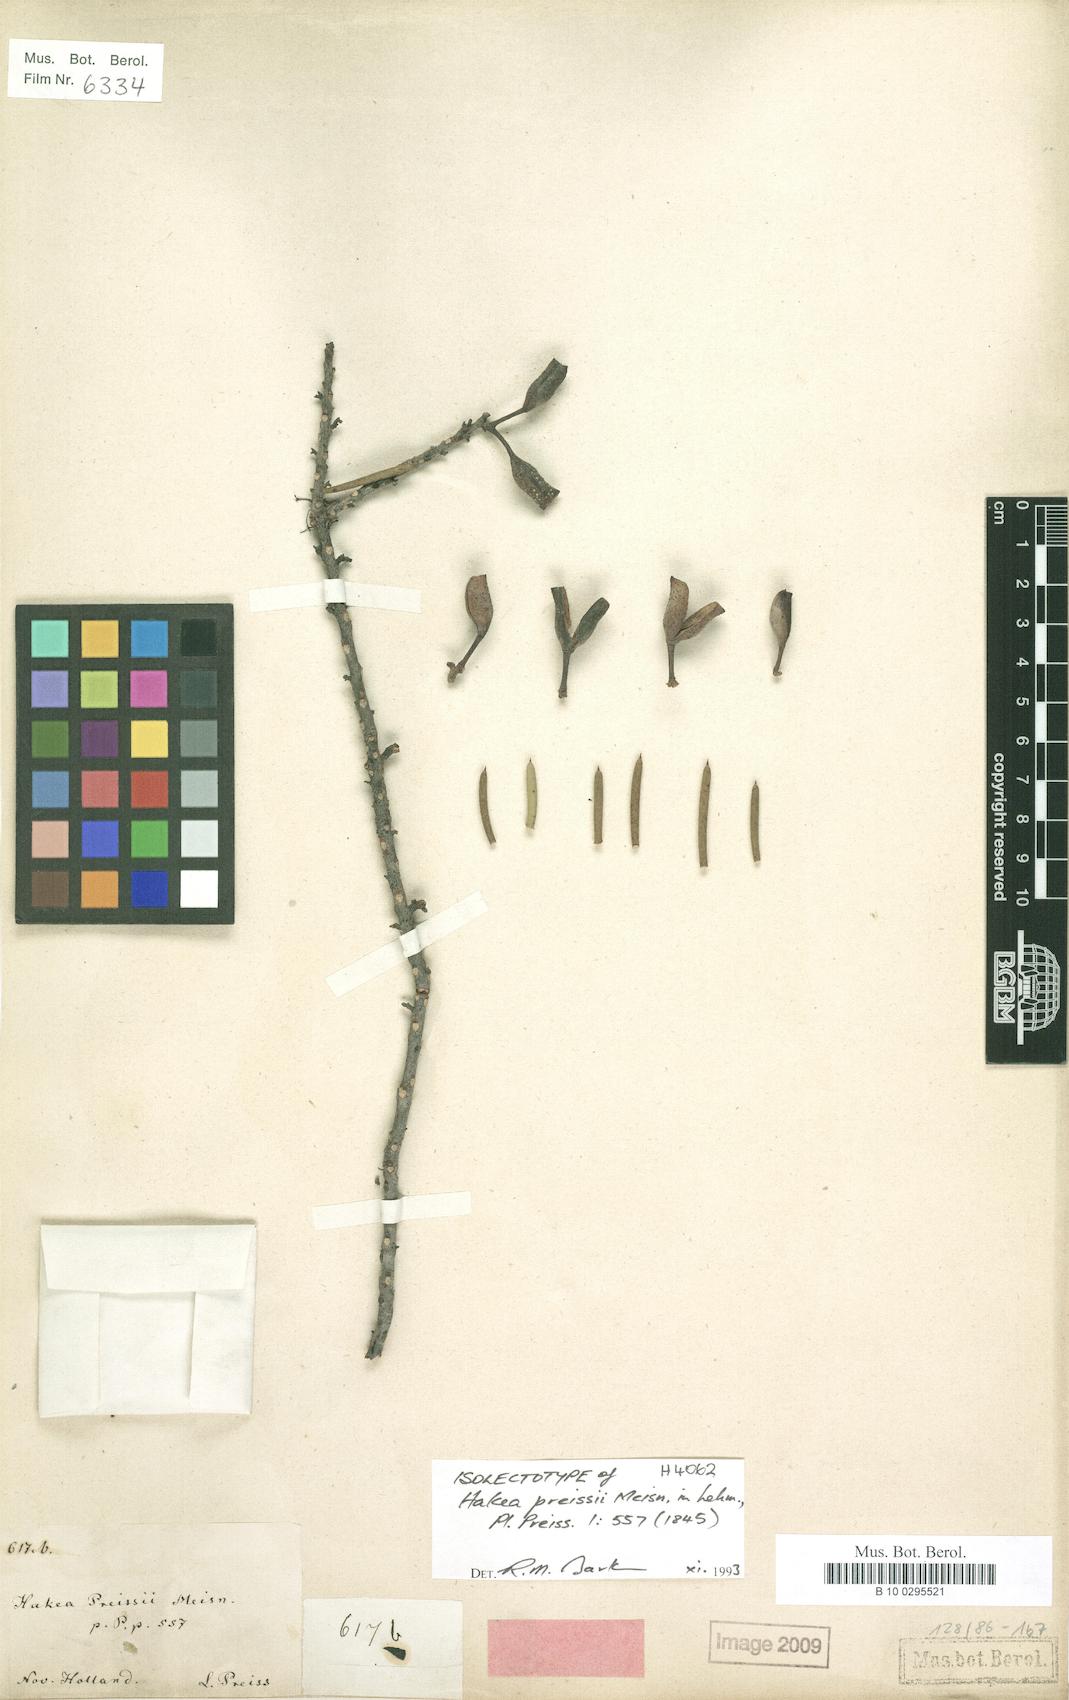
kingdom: Plantae
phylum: Tracheophyta
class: Magnoliopsida
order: Proteales
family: Proteaceae
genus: Hakea
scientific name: Hakea preissii
